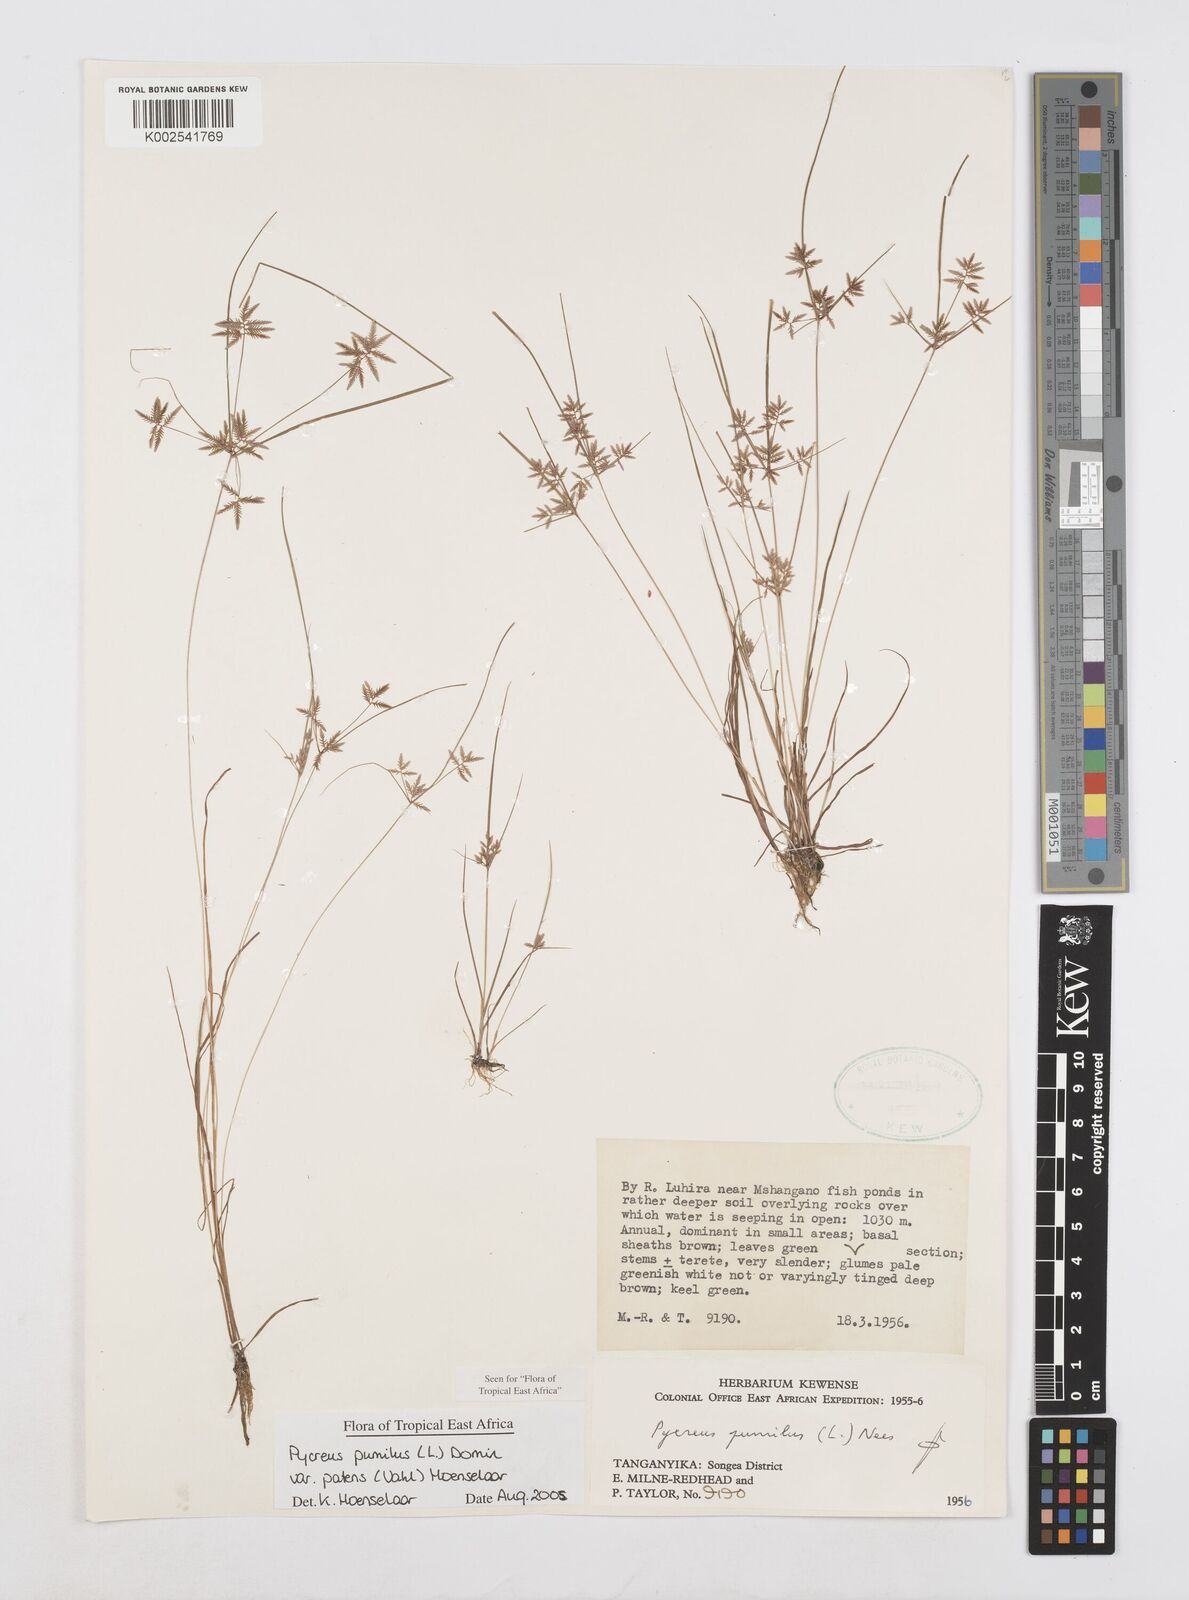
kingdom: Plantae
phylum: Tracheophyta
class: Liliopsida
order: Poales
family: Cyperaceae
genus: Cyperus
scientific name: Cyperus pumilus
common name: Low flatsedge
